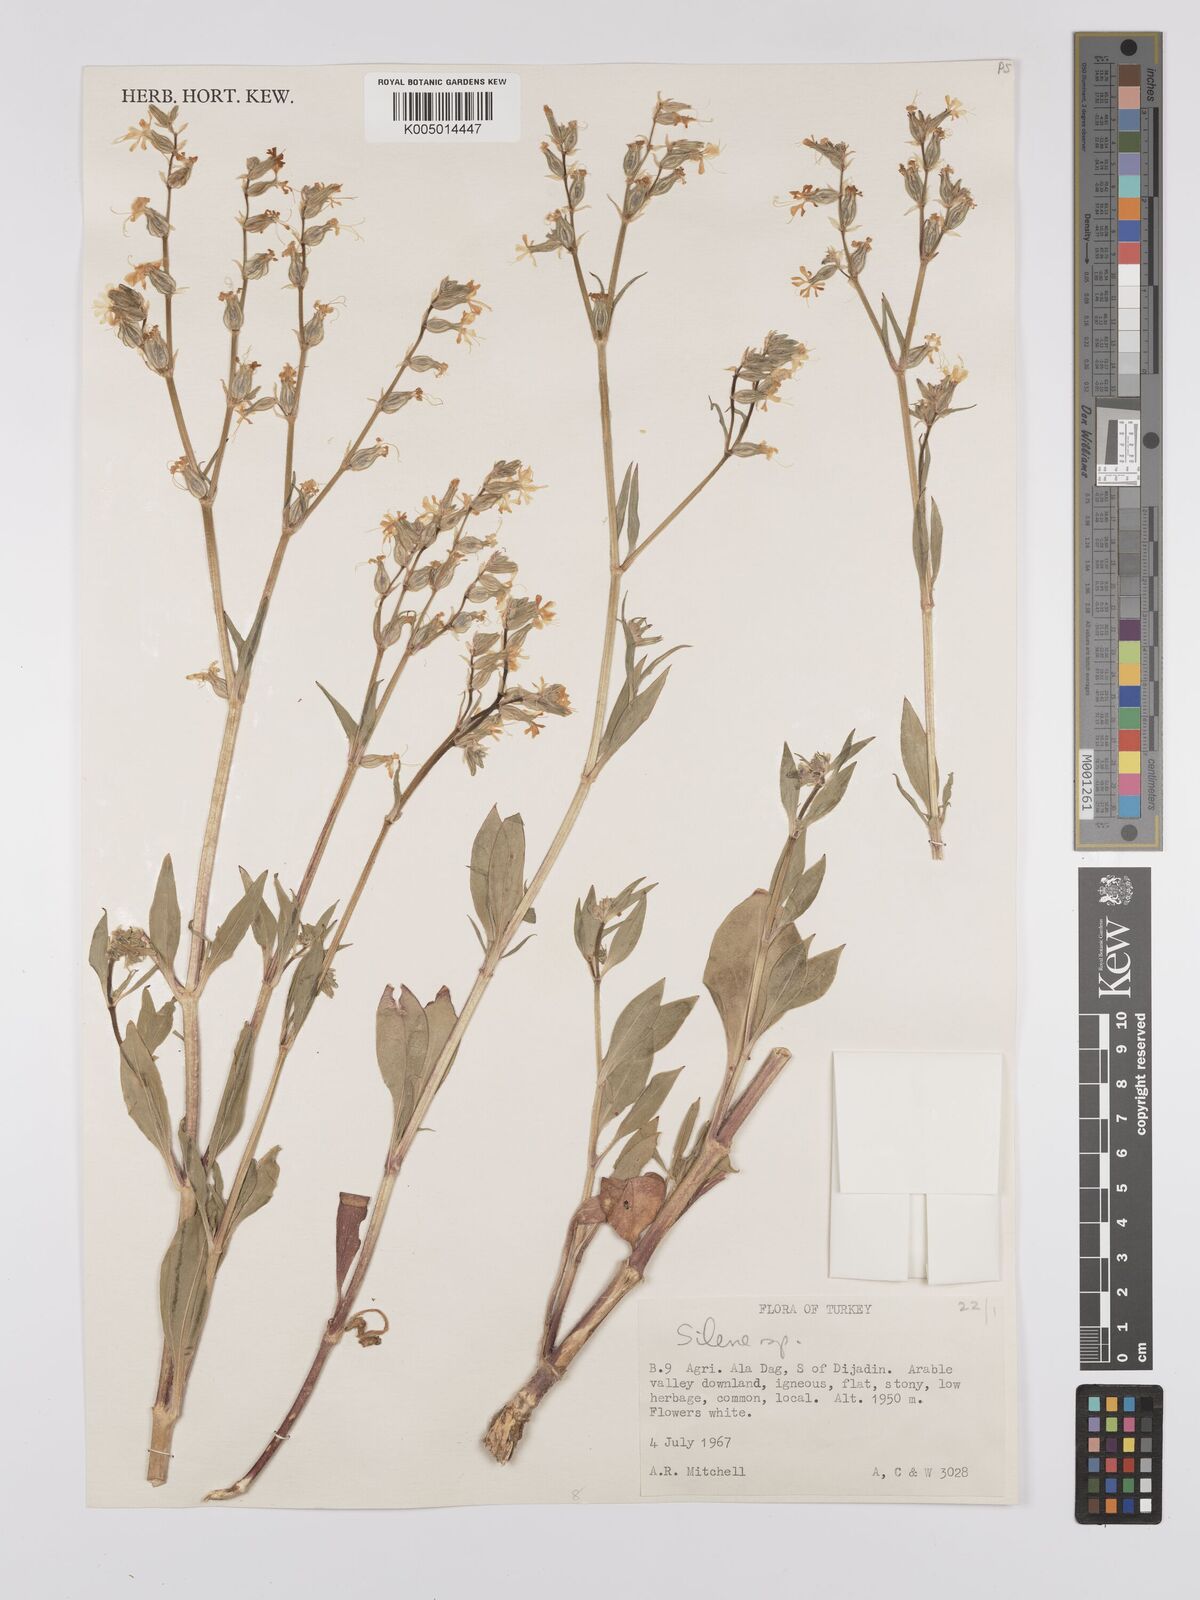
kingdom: Plantae
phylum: Tracheophyta
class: Magnoliopsida
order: Caryophyllales
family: Caryophyllaceae
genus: Silene
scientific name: Silene
